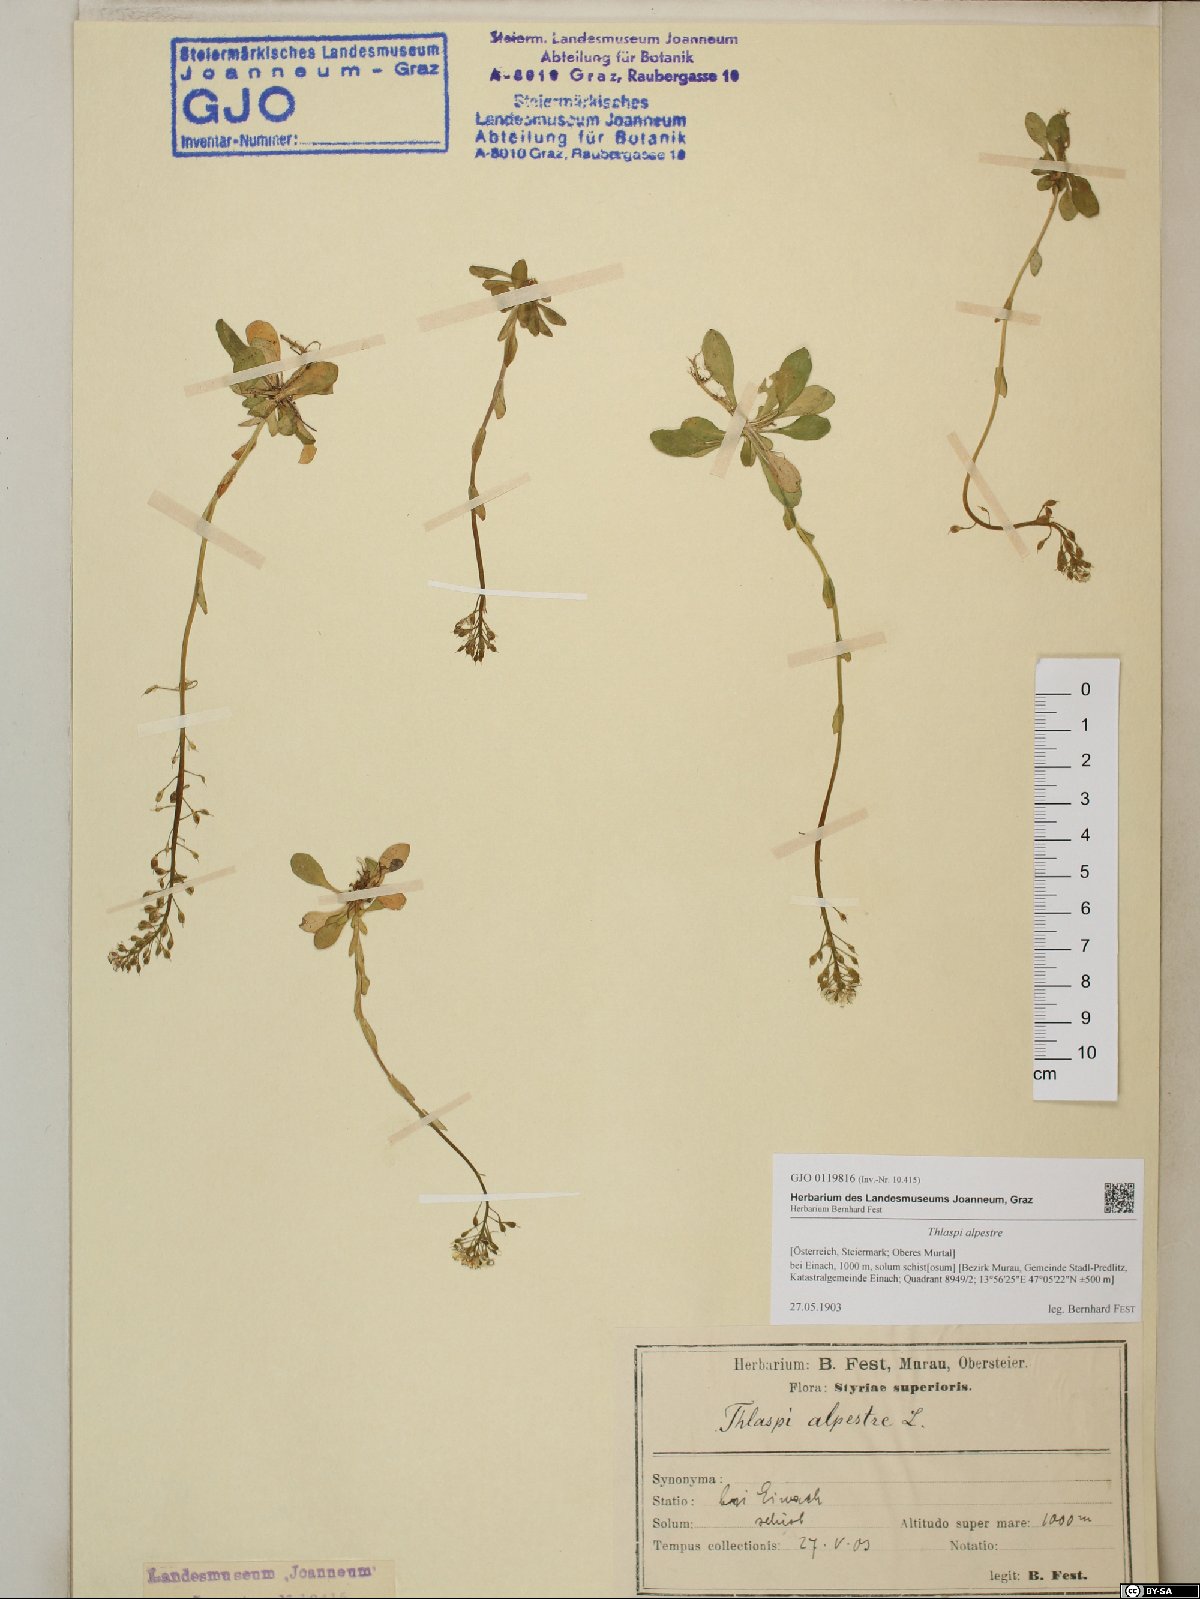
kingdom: Plantae
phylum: Tracheophyta
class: Magnoliopsida
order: Brassicales
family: Brassicaceae
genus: Noccaea
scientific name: Noccaea alpestris
